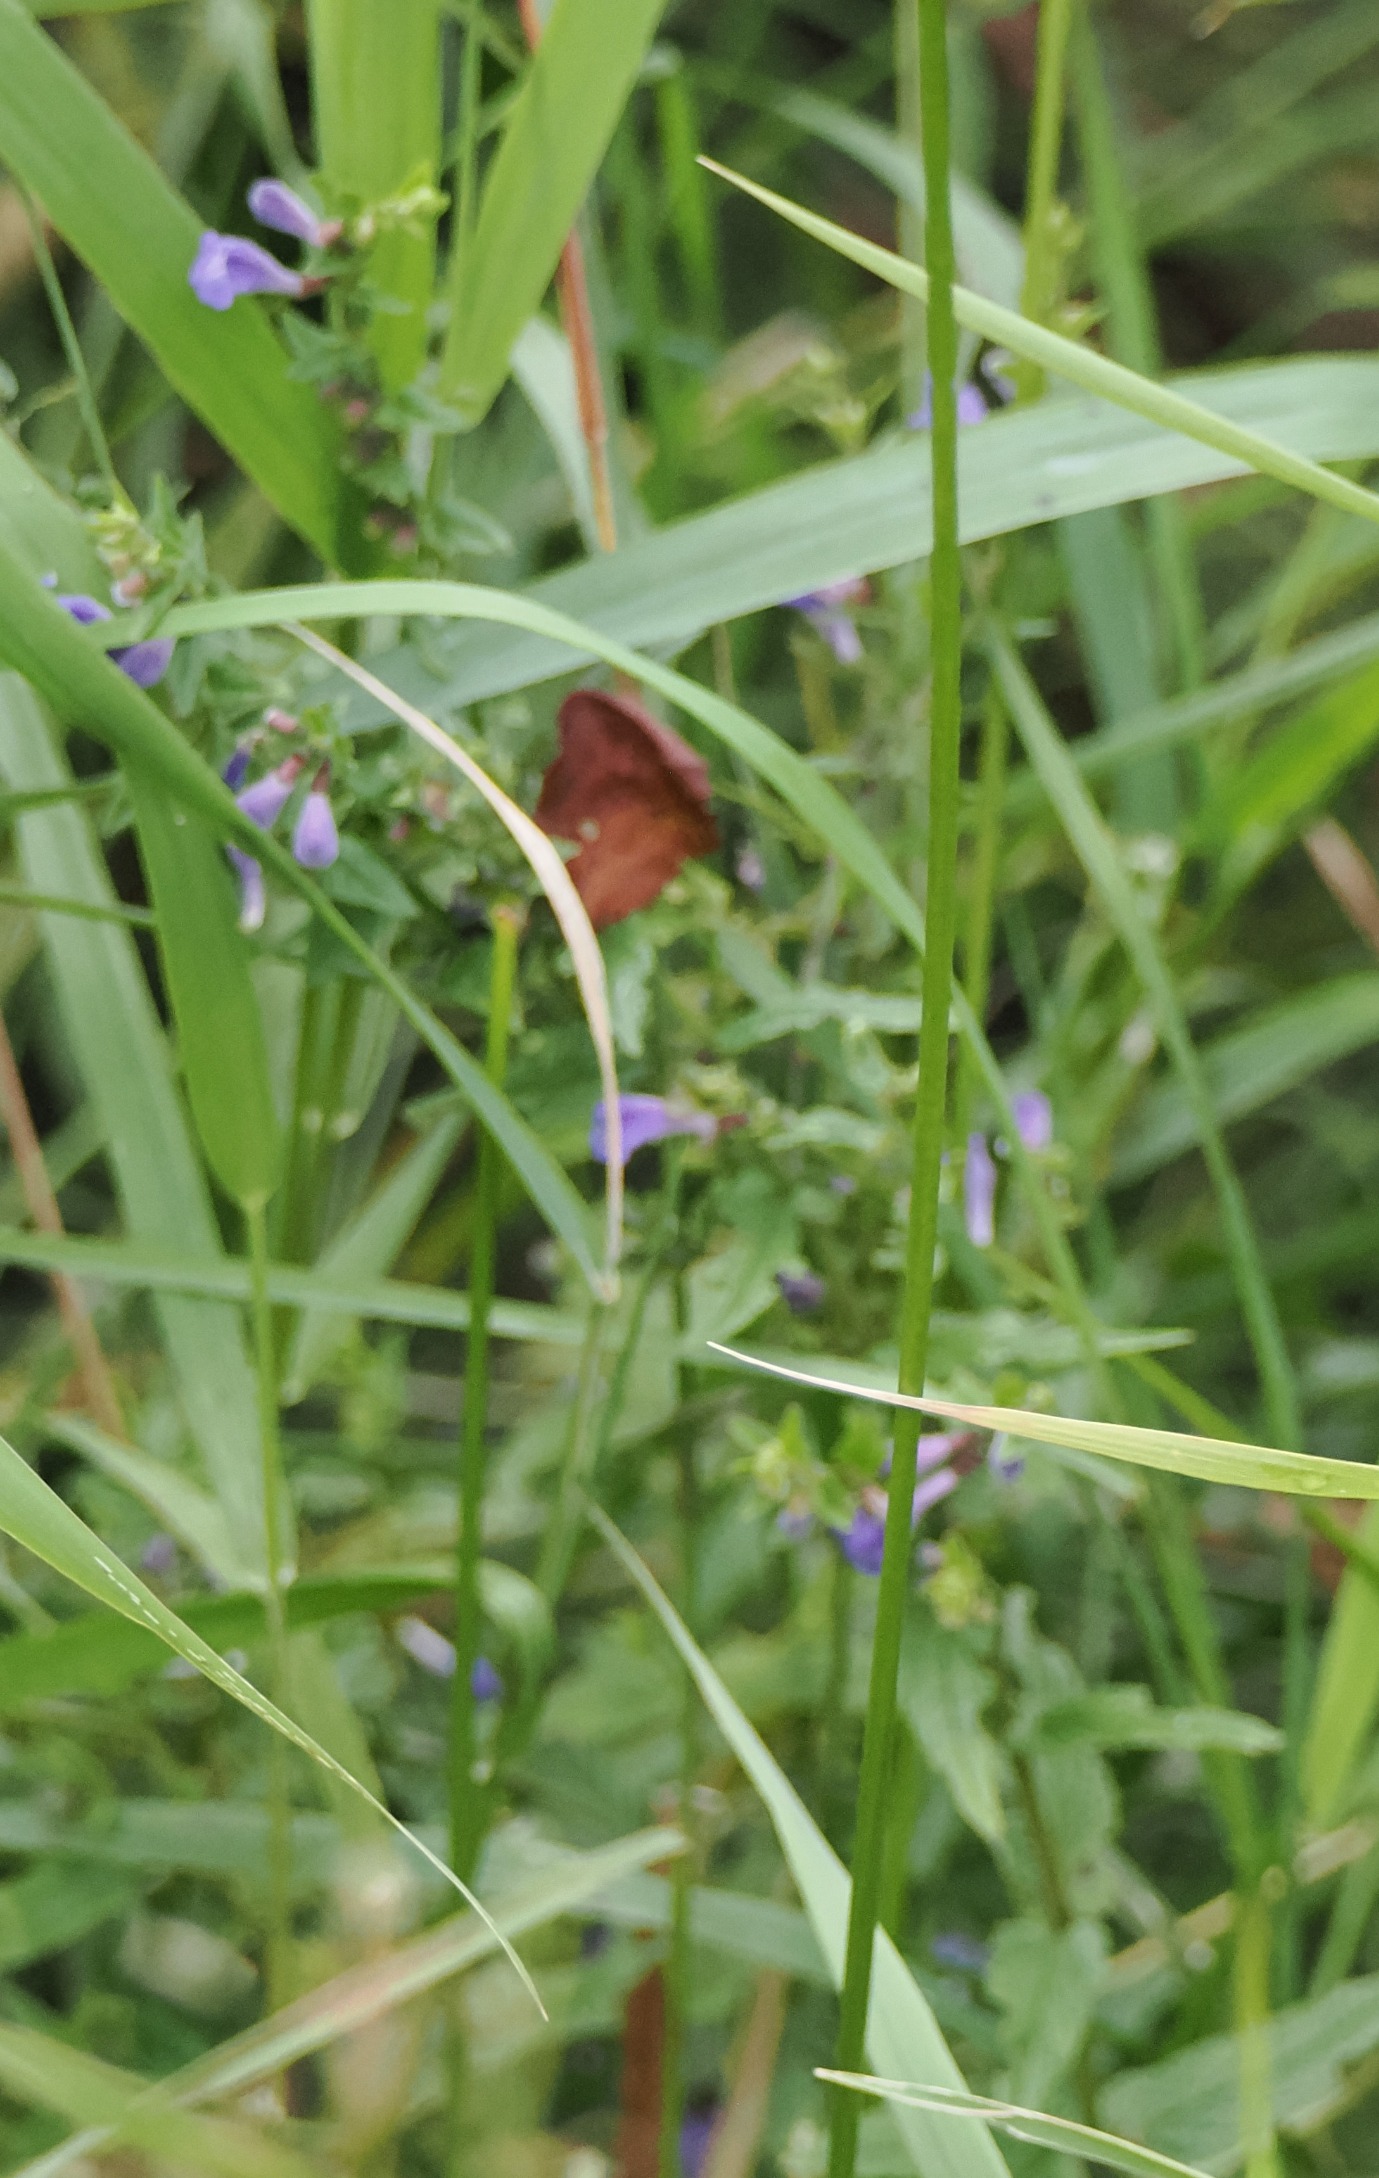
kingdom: Plantae
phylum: Tracheophyta
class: Magnoliopsida
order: Lamiales
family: Lamiaceae
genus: Scutellaria
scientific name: Scutellaria galericulata
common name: Almindelig skjolddrager
